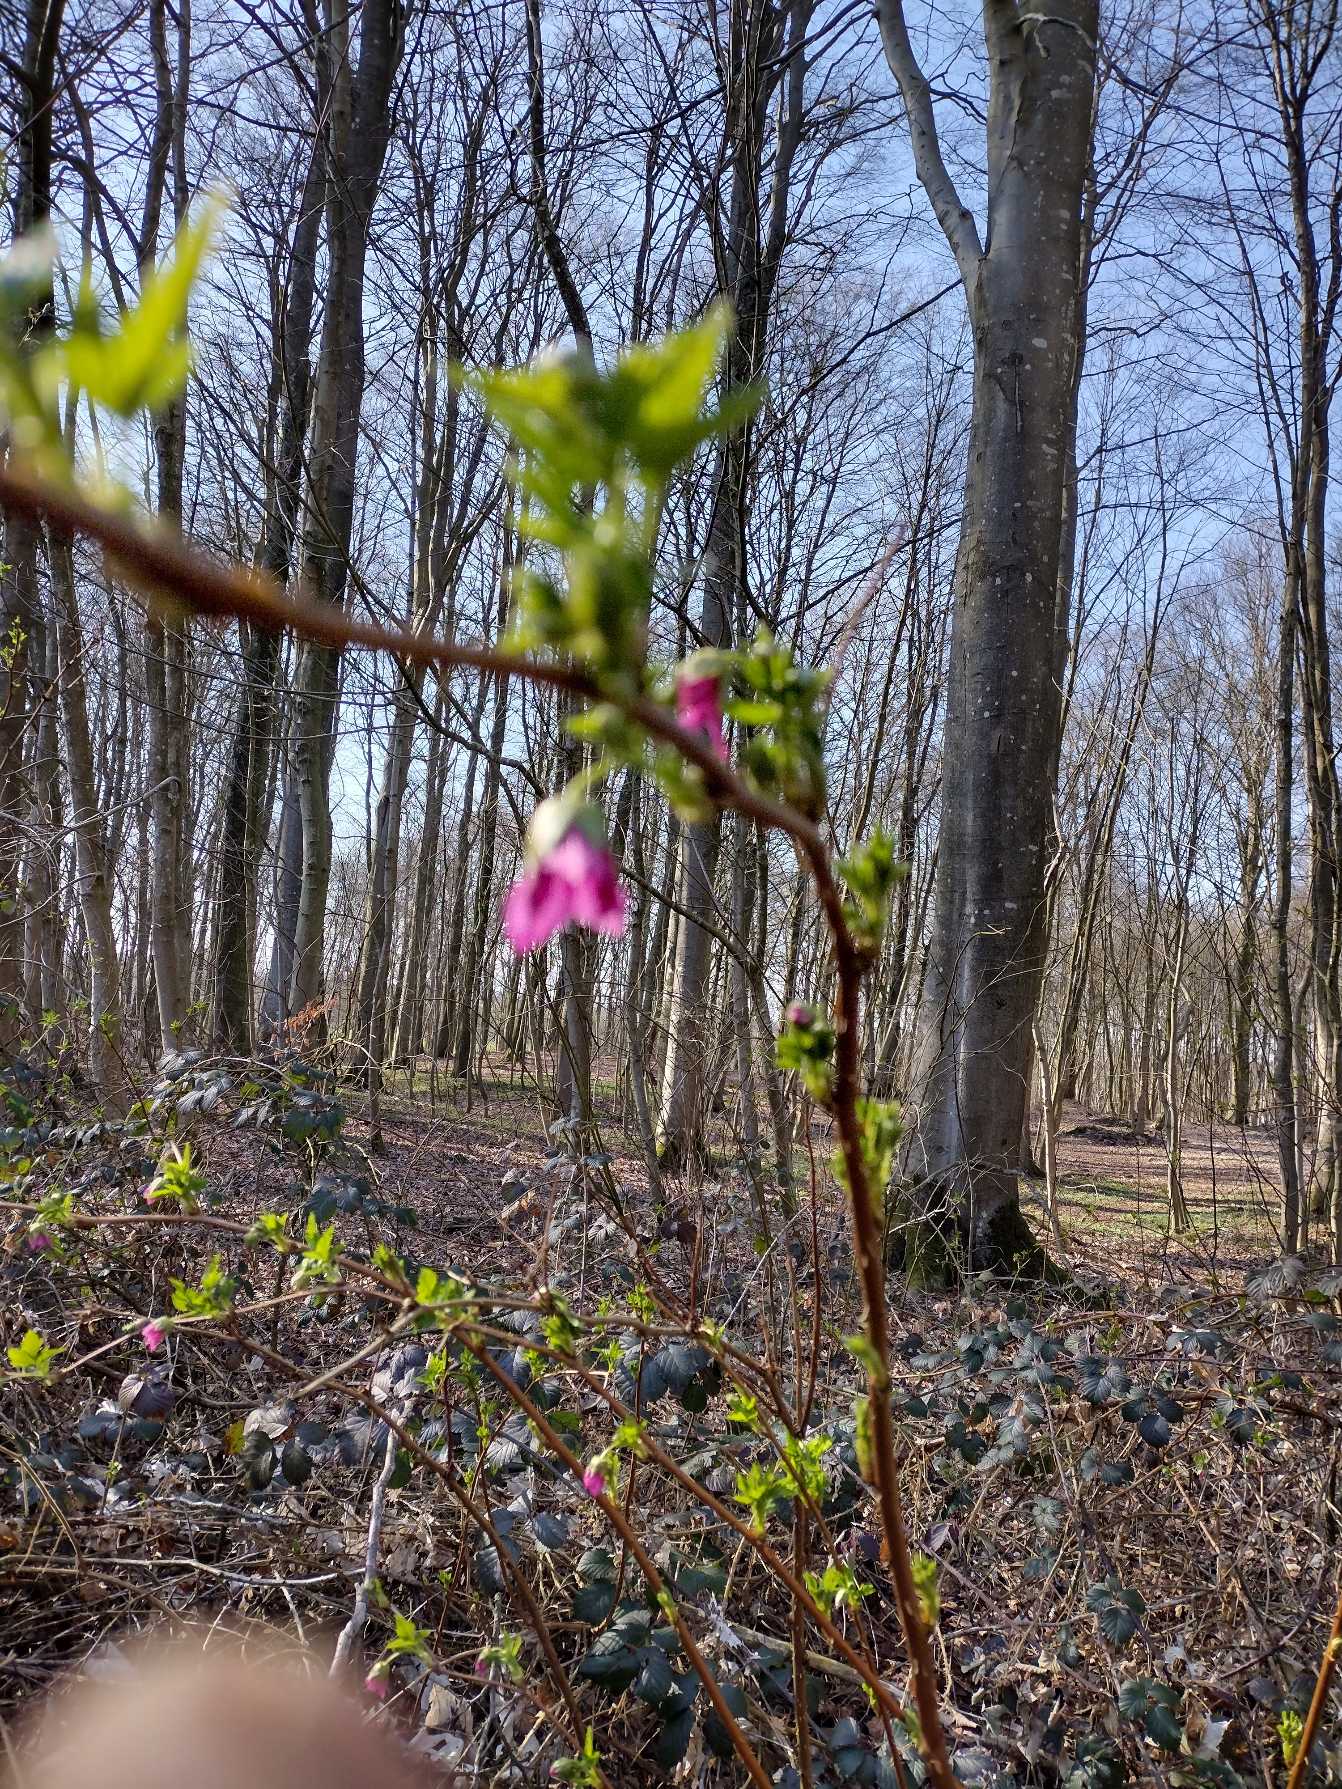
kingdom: Plantae
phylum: Tracheophyta
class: Magnoliopsida
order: Rosales
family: Rosaceae
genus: Rubus
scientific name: Rubus spectabilis
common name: Laksebær
